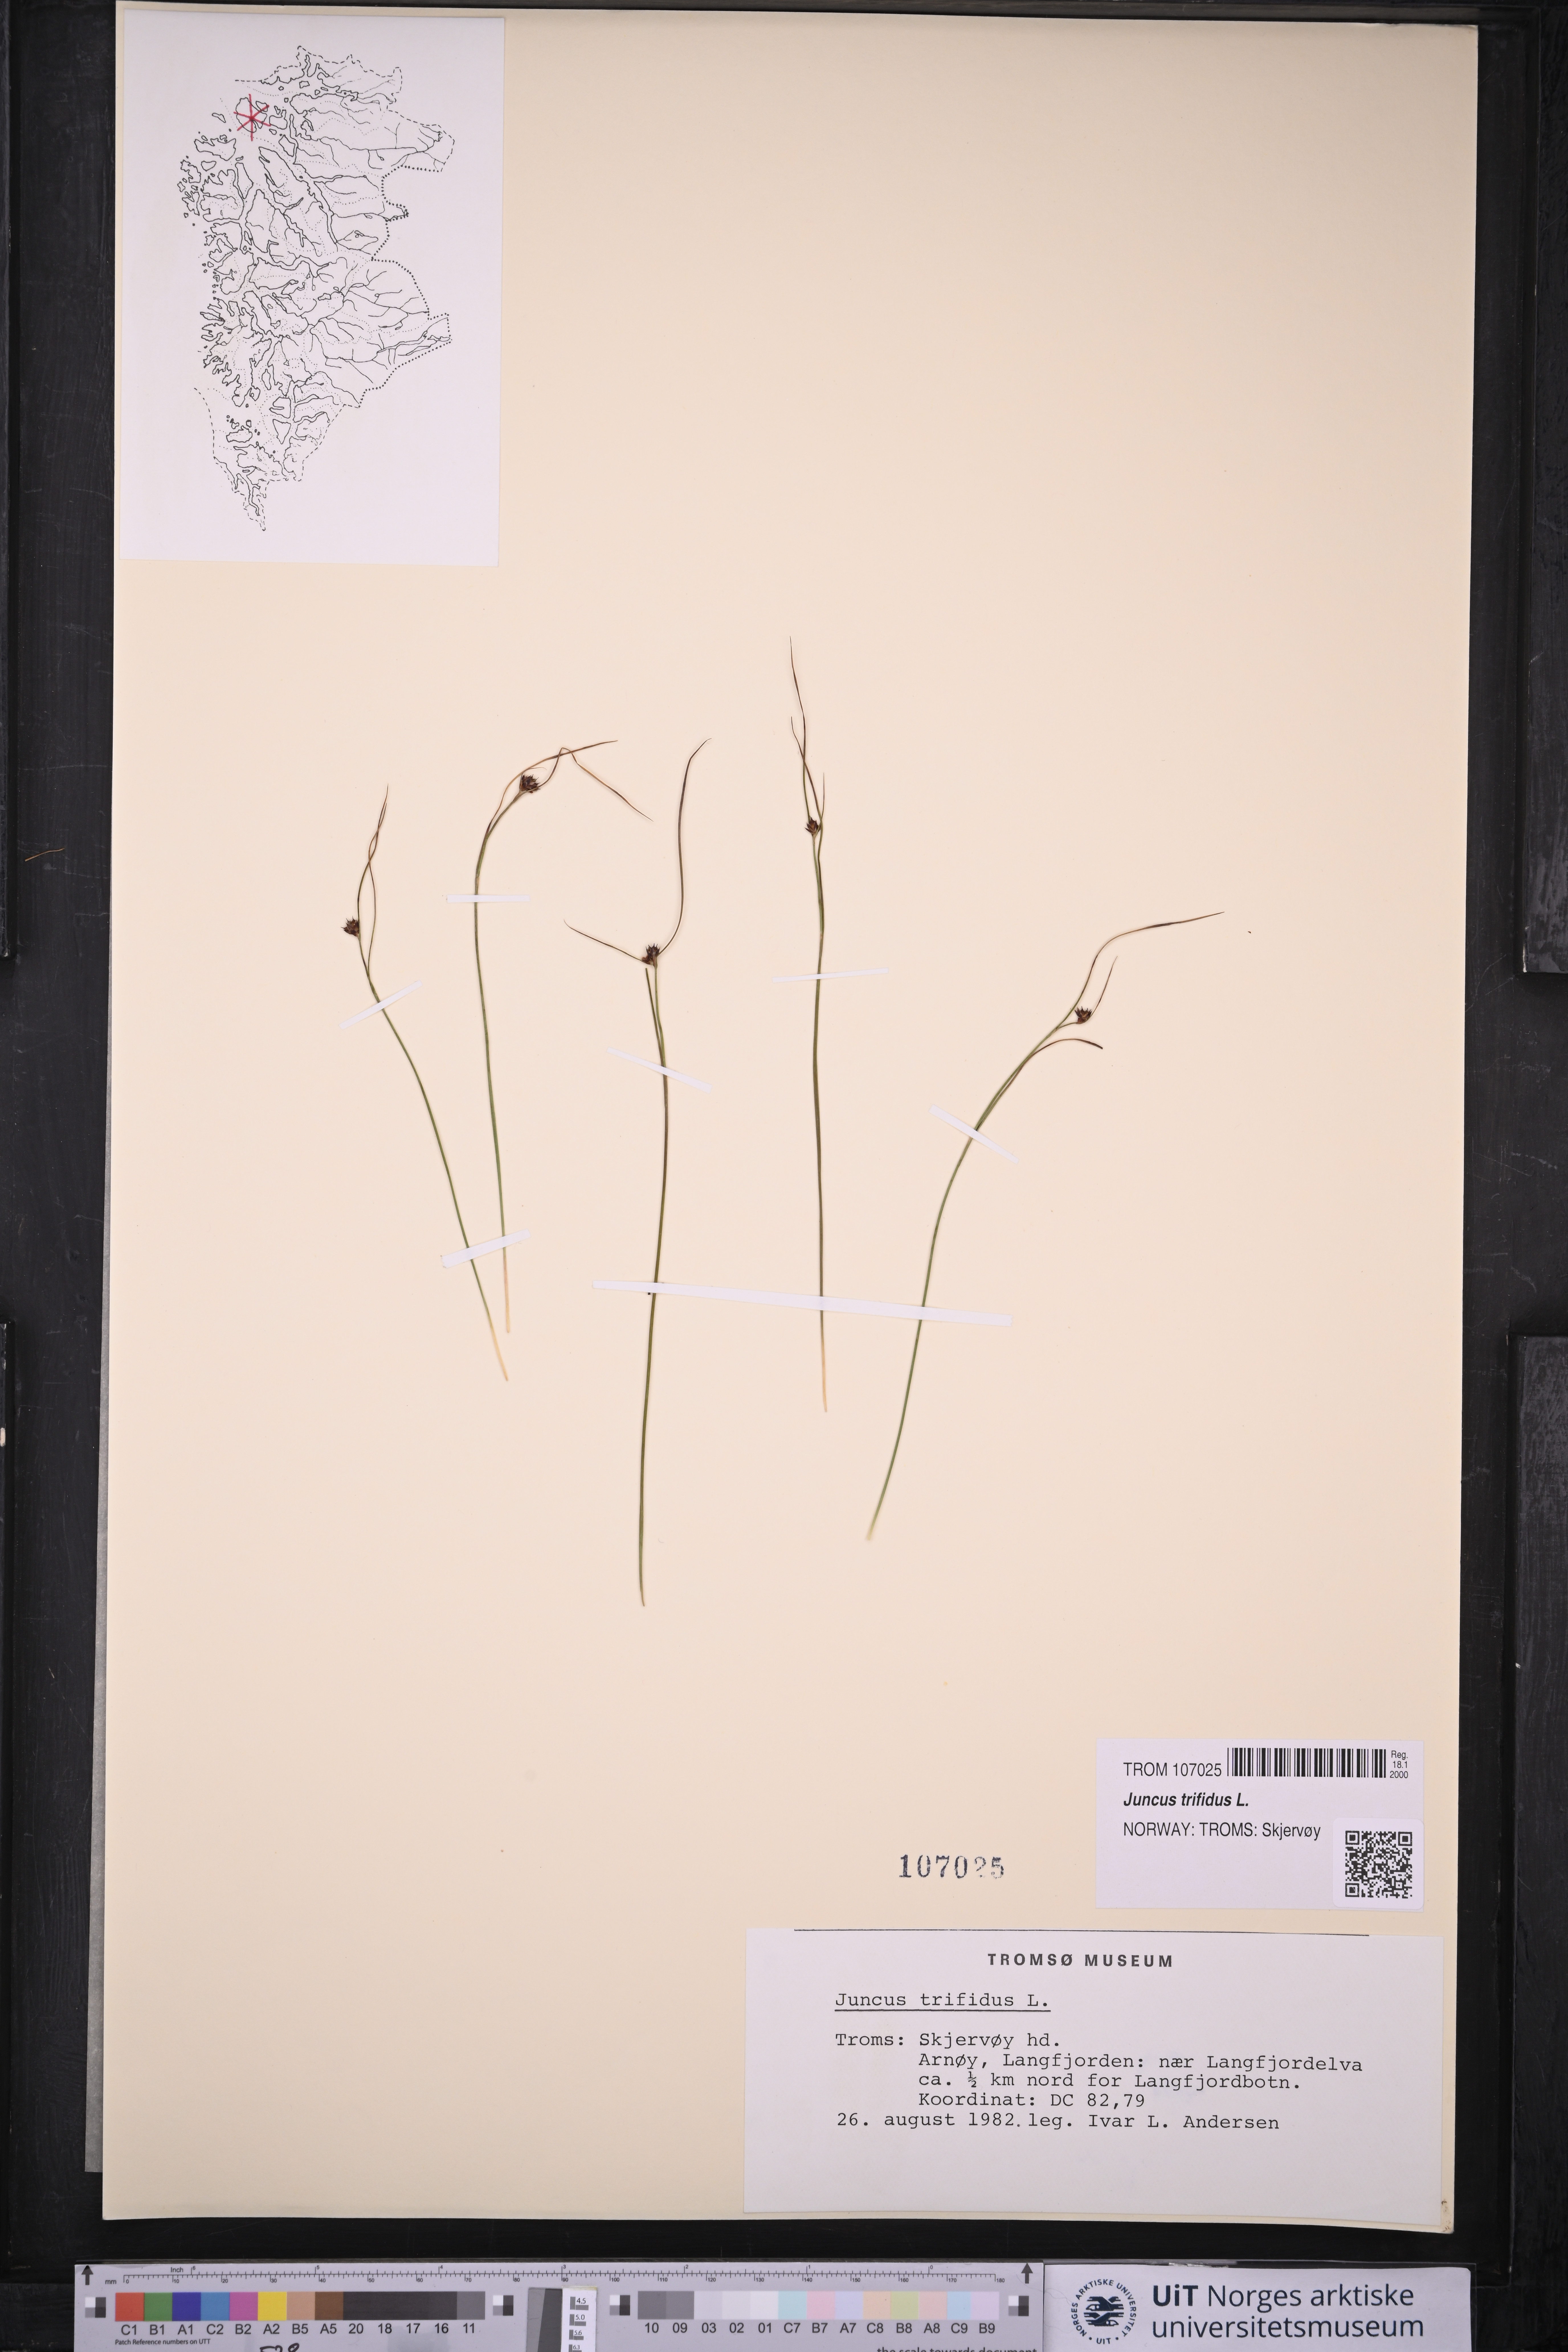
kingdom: Plantae
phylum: Tracheophyta
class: Liliopsida
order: Poales
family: Juncaceae
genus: Oreojuncus
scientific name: Oreojuncus trifidus
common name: Highland rush
